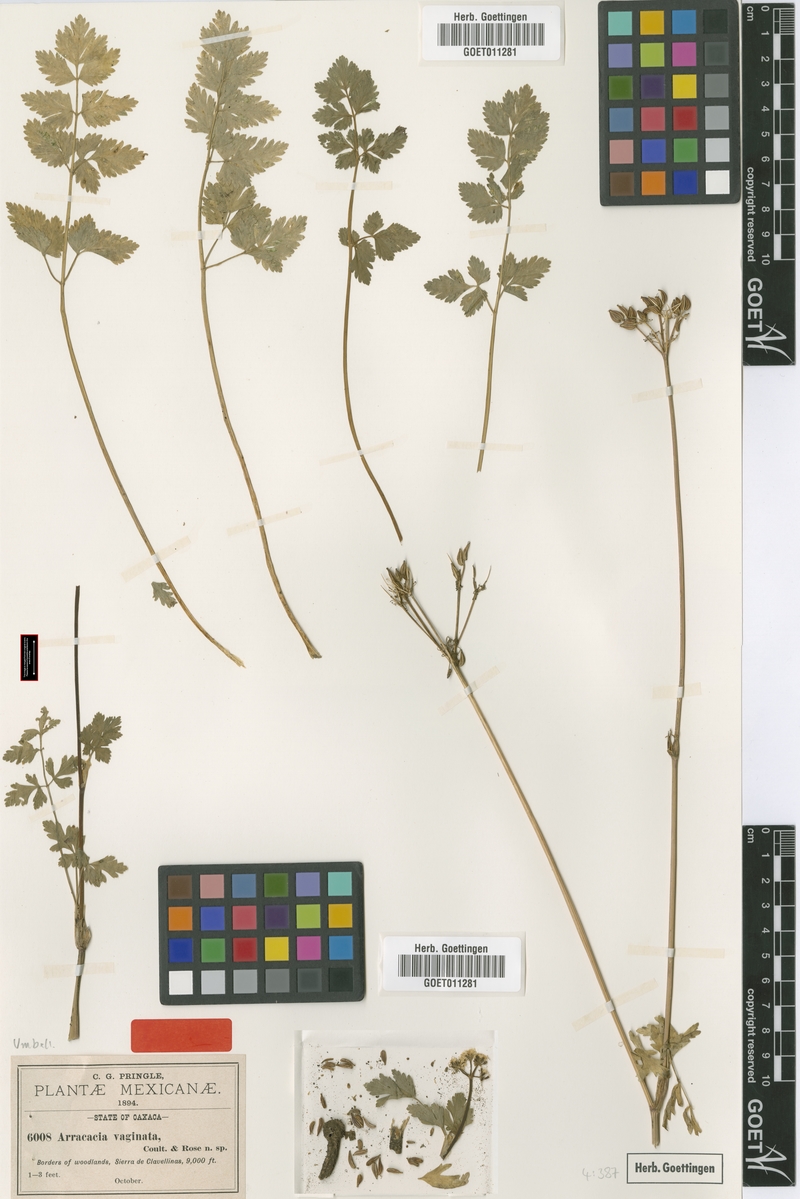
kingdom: Plantae
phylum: Tracheophyta
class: Magnoliopsida
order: Apiales
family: Apiaceae
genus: Tauschia
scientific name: Tauschia vaginata
